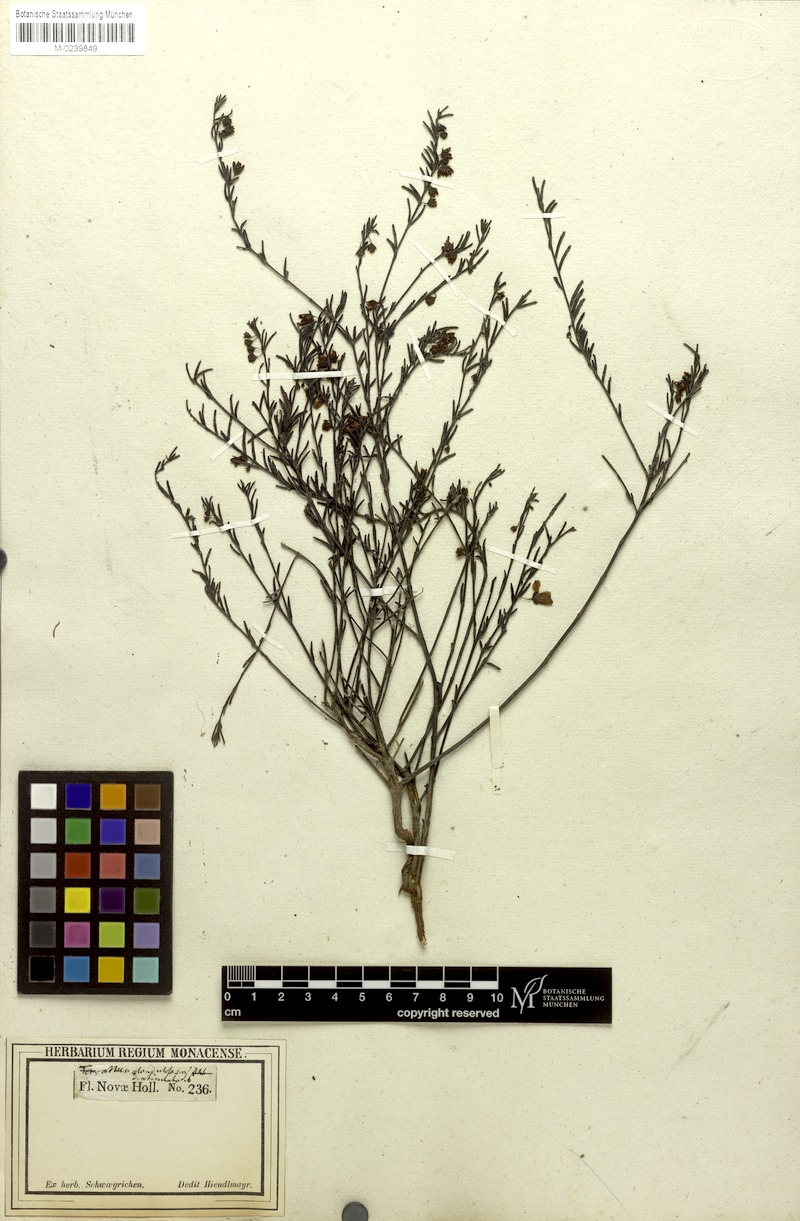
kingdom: Plantae
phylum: Tracheophyta
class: Magnoliopsida
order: Oxalidales
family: Elaeocarpaceae
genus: Tetratheca
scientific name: Tetratheca glandulosa
